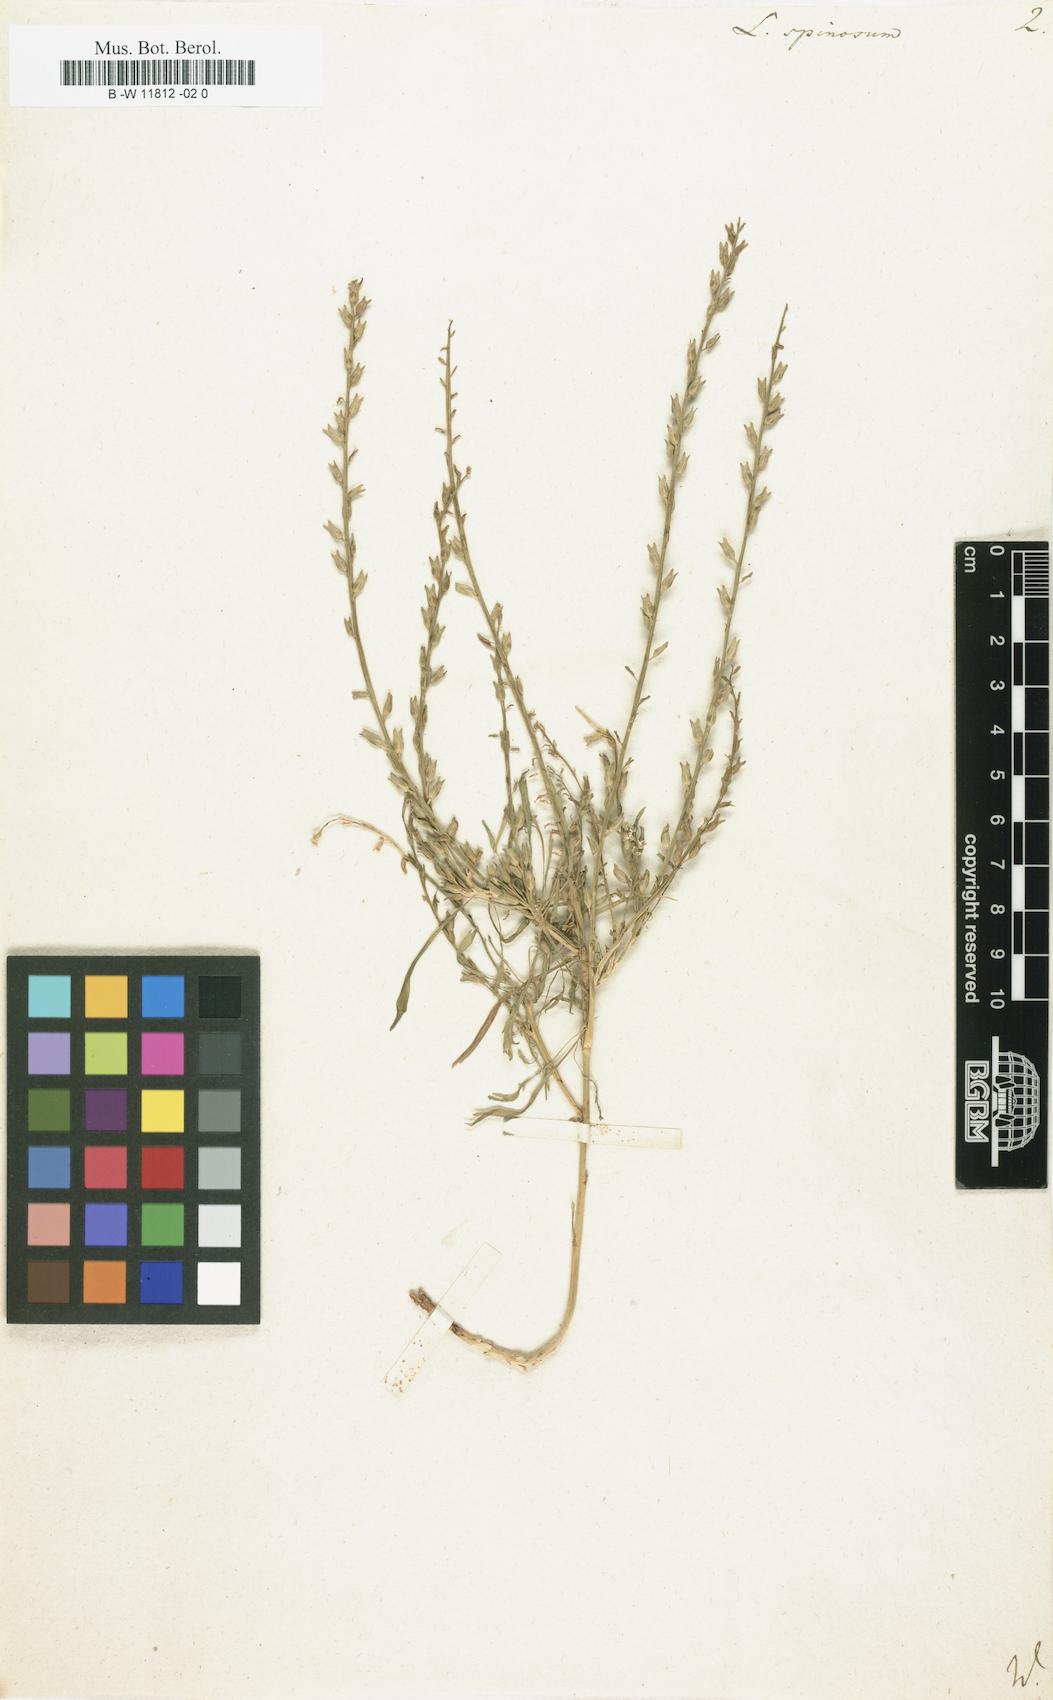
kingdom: Plantae
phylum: Tracheophyta
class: Magnoliopsida
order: Brassicales
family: Brassicaceae
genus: Lepidium
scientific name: Lepidium spinosum
